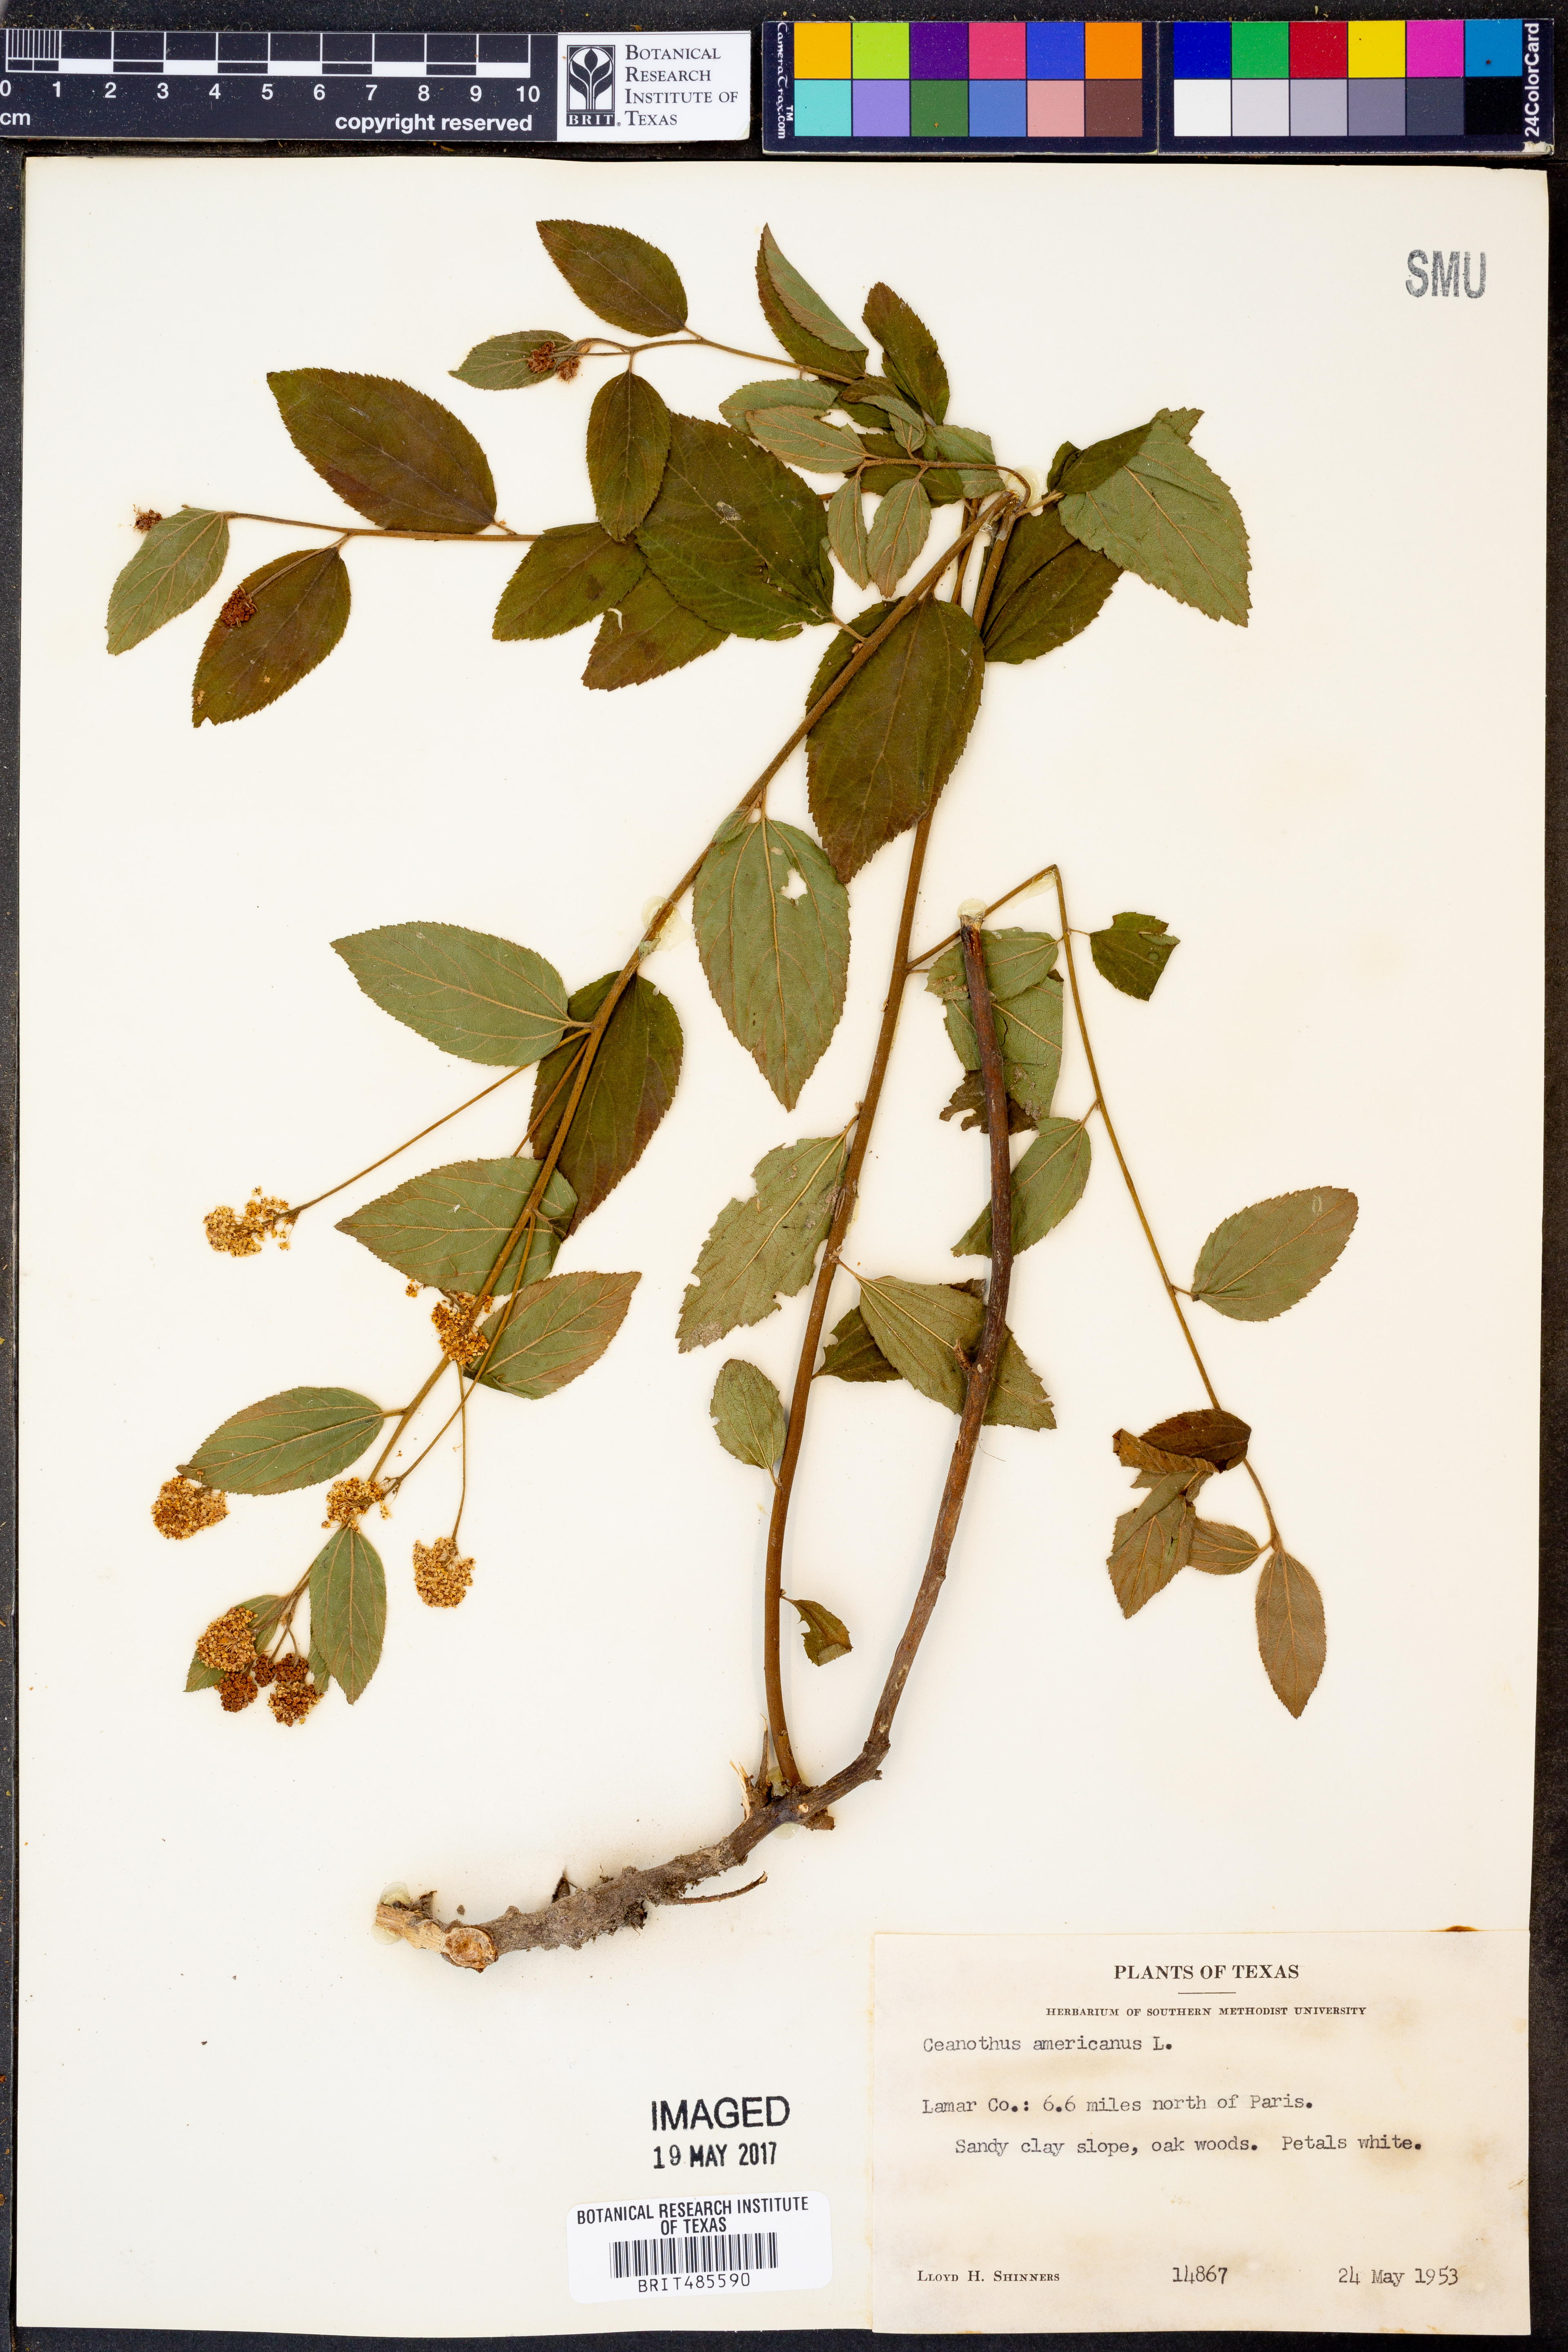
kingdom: Plantae
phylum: Tracheophyta
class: Magnoliopsida
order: Rosales
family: Rhamnaceae
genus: Ceanothus
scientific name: Ceanothus americanus
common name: Redroot
